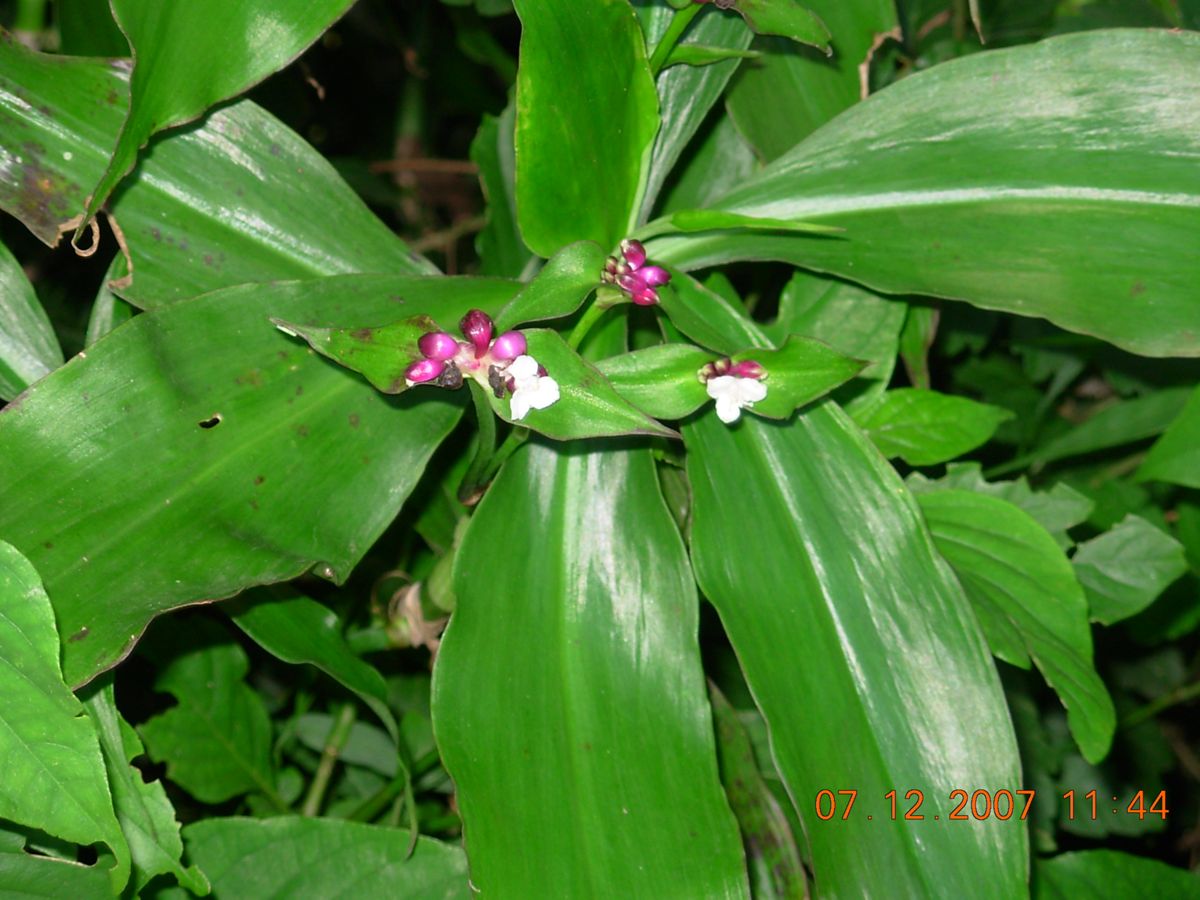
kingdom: Plantae
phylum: Tracheophyta
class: Liliopsida
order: Commelinales
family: Commelinaceae
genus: Tradescantia
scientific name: Tradescantia zanonia
